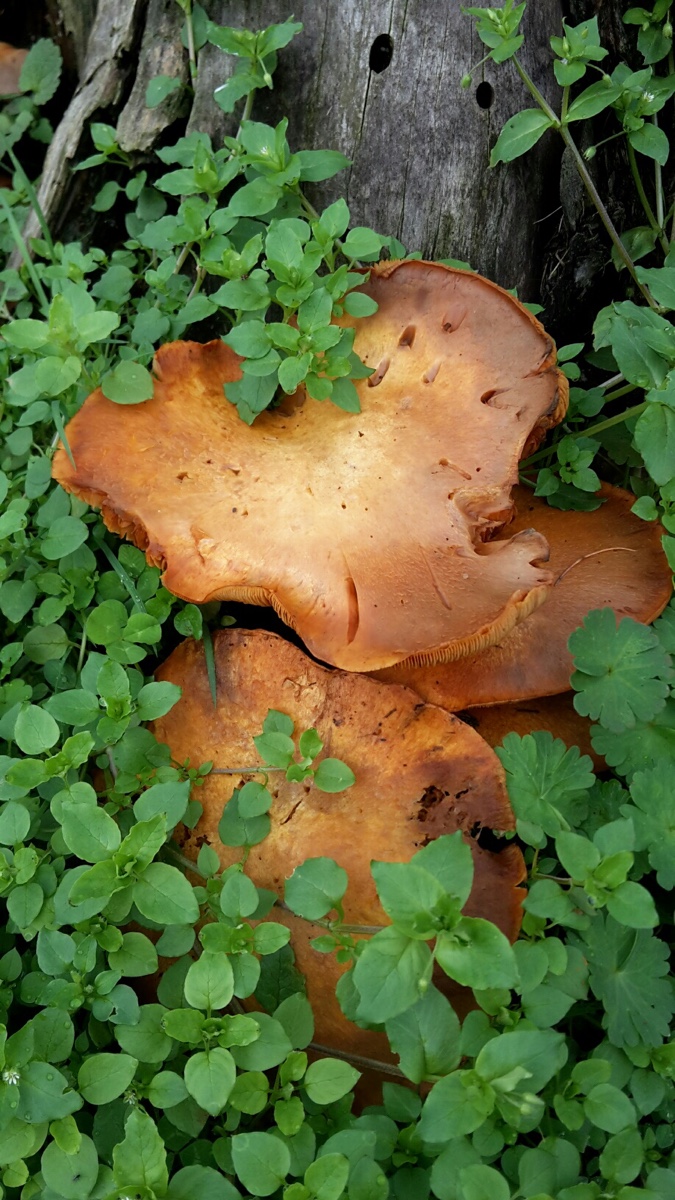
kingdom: Fungi
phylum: Basidiomycota
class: Agaricomycetes
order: Agaricales
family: Hymenogastraceae
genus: Gymnopilus
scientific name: Gymnopilus spectabilis
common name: fibret flammehat
